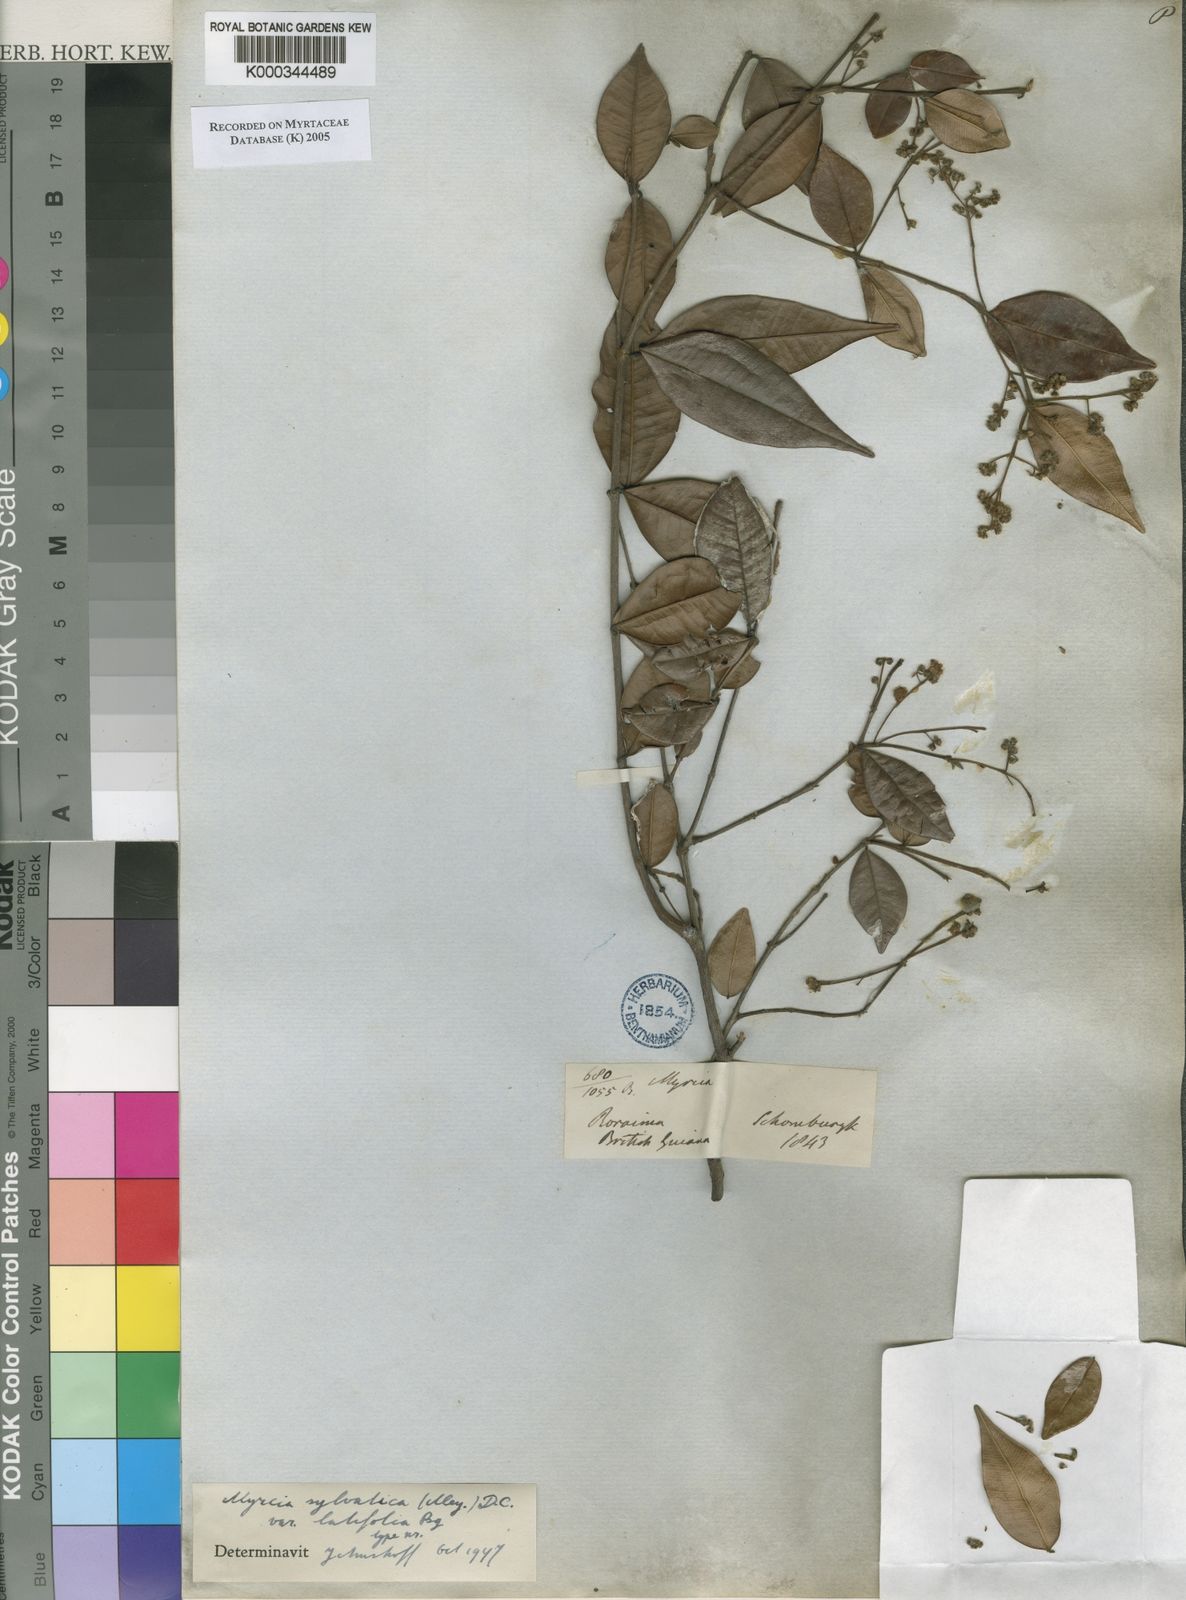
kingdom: Plantae
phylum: Tracheophyta
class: Magnoliopsida
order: Myrtales
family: Myrtaceae
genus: Myrcia
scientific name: Myrcia sylvatica
